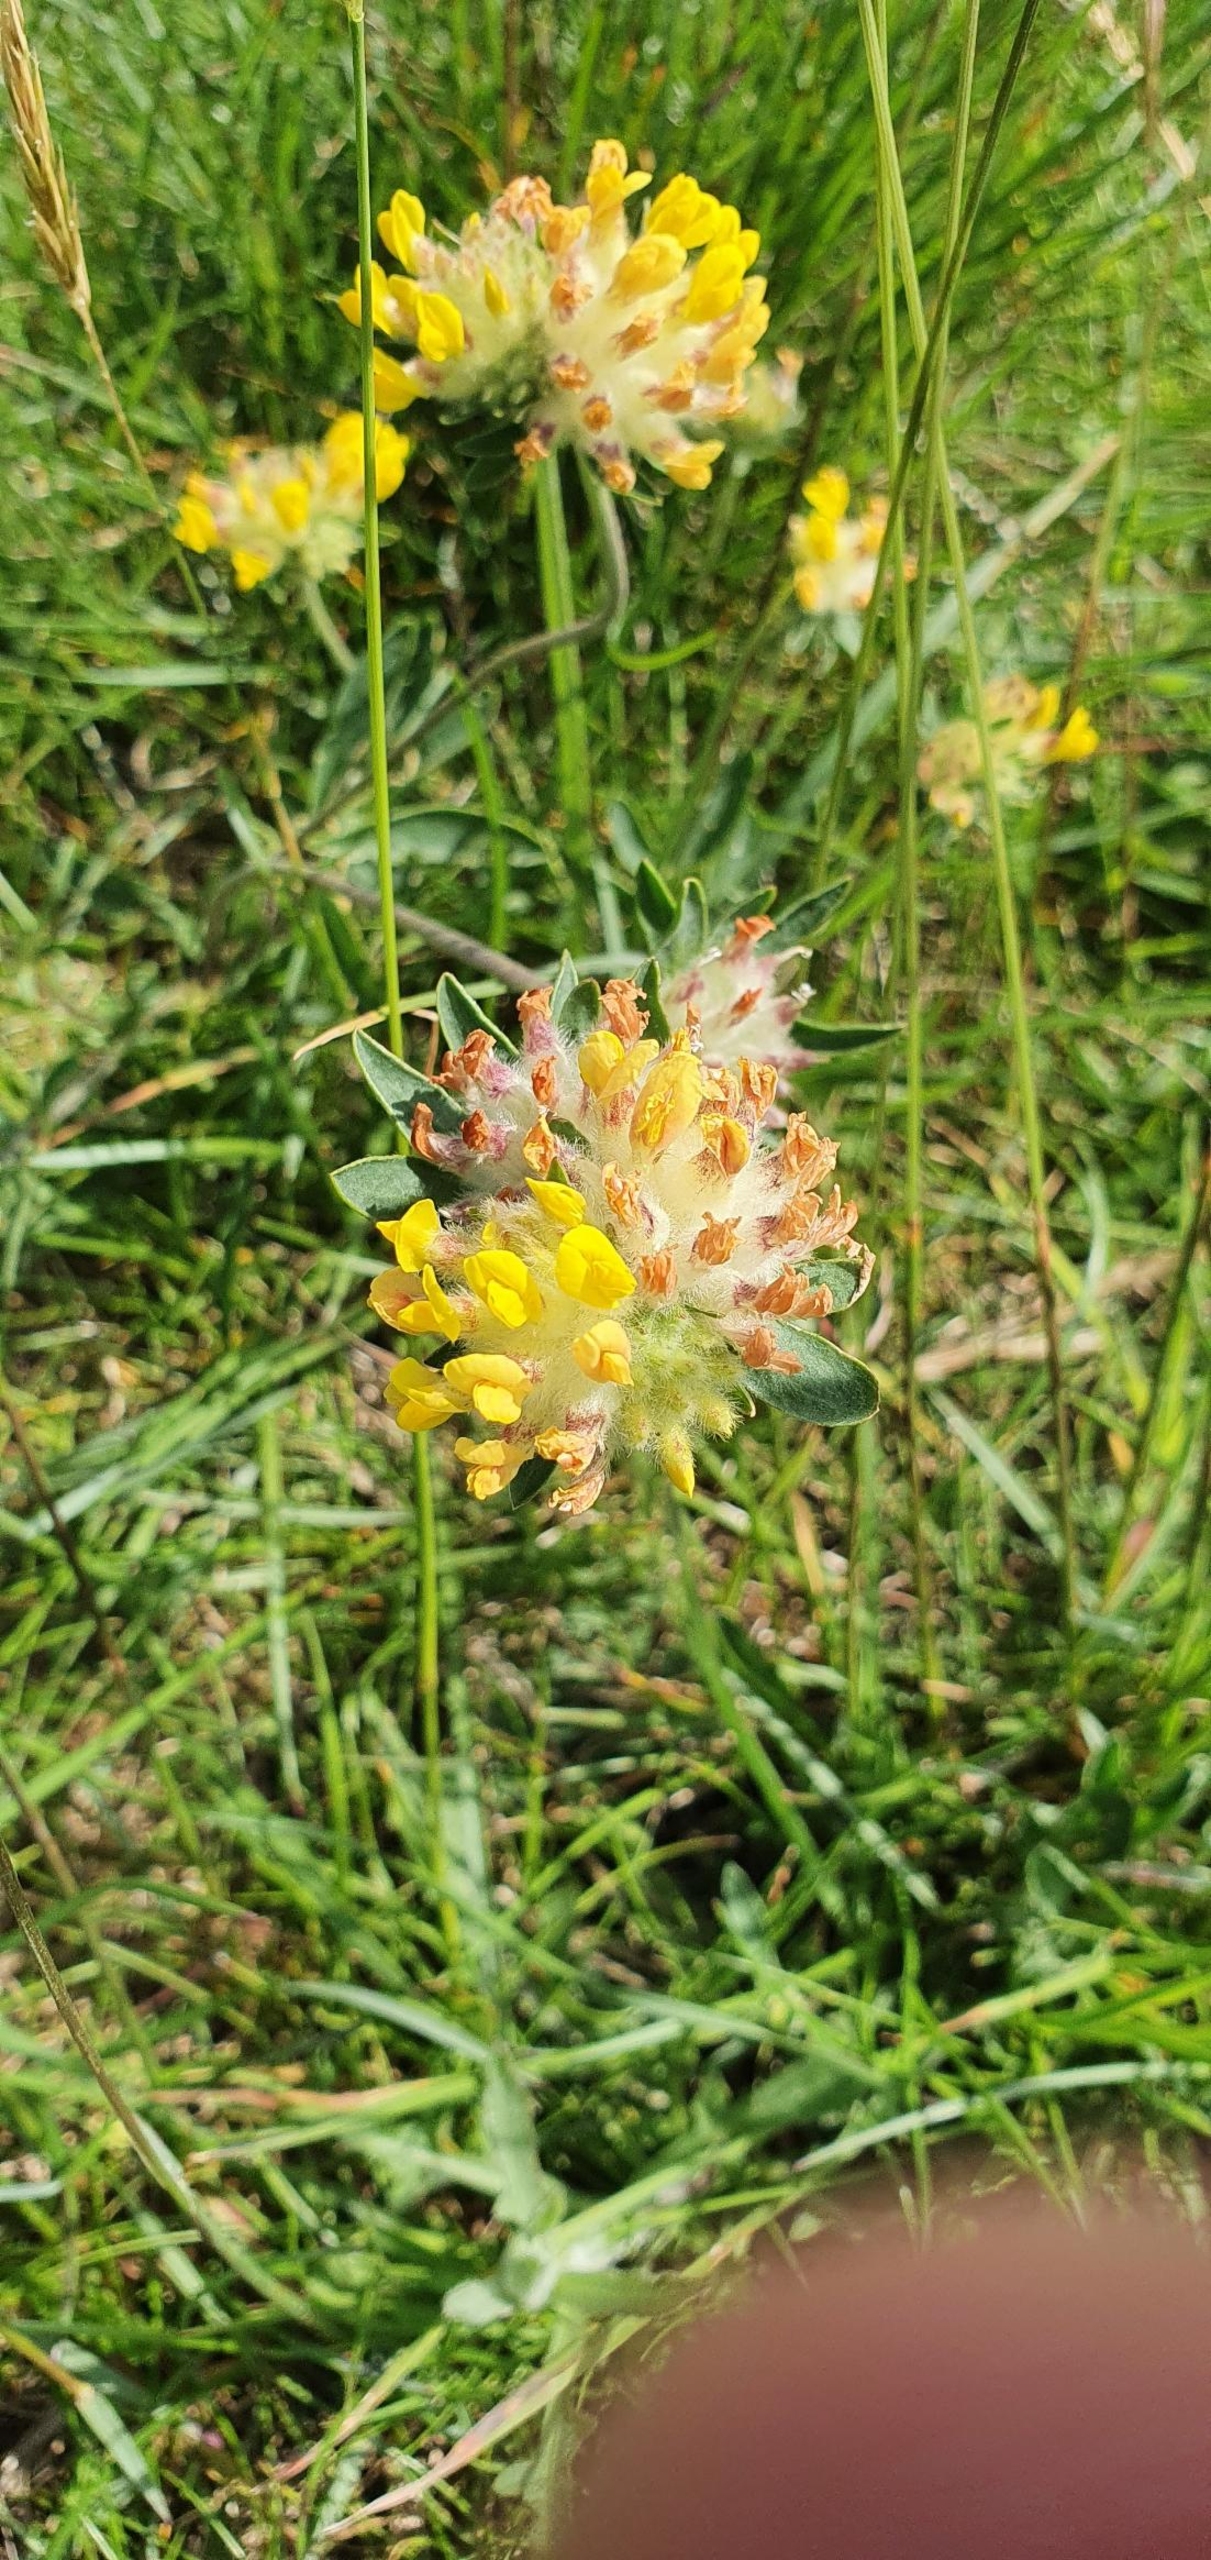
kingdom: Plantae
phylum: Tracheophyta
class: Magnoliopsida
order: Fabales
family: Fabaceae
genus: Anthyllis
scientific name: Anthyllis vulneraria
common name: Rundbælg
